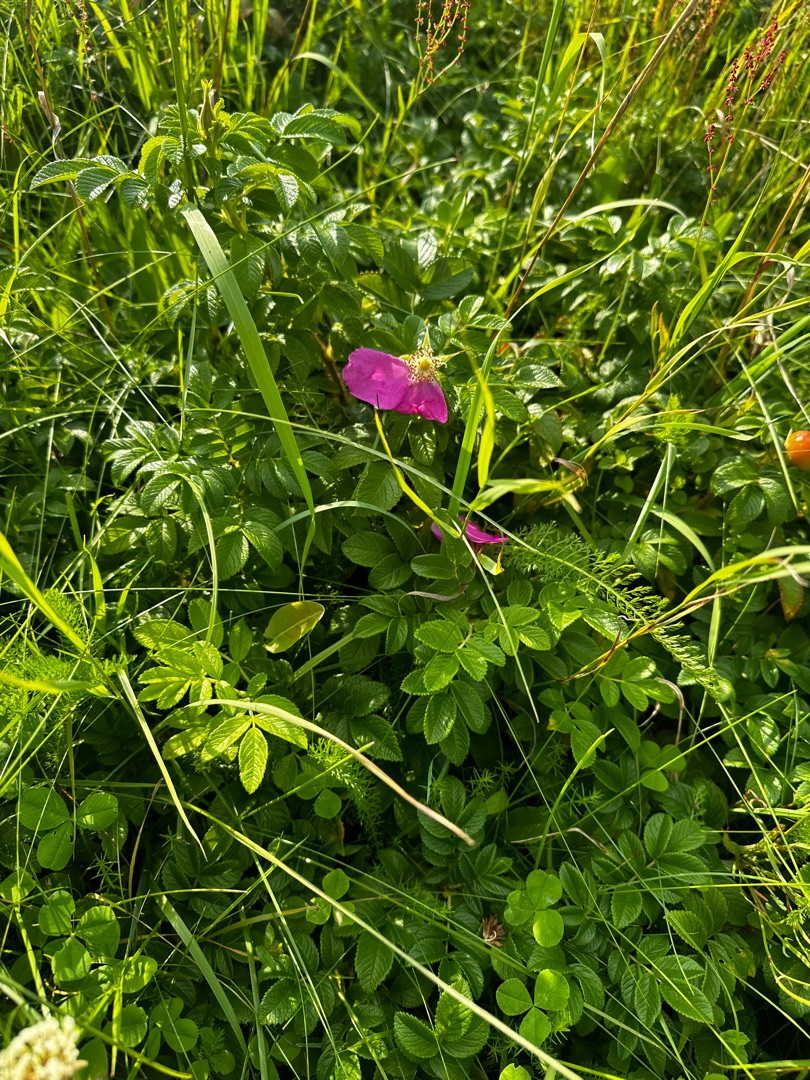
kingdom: Plantae
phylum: Tracheophyta
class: Magnoliopsida
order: Rosales
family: Rosaceae
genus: Rosa
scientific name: Rosa rugosa
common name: Rynket rose
